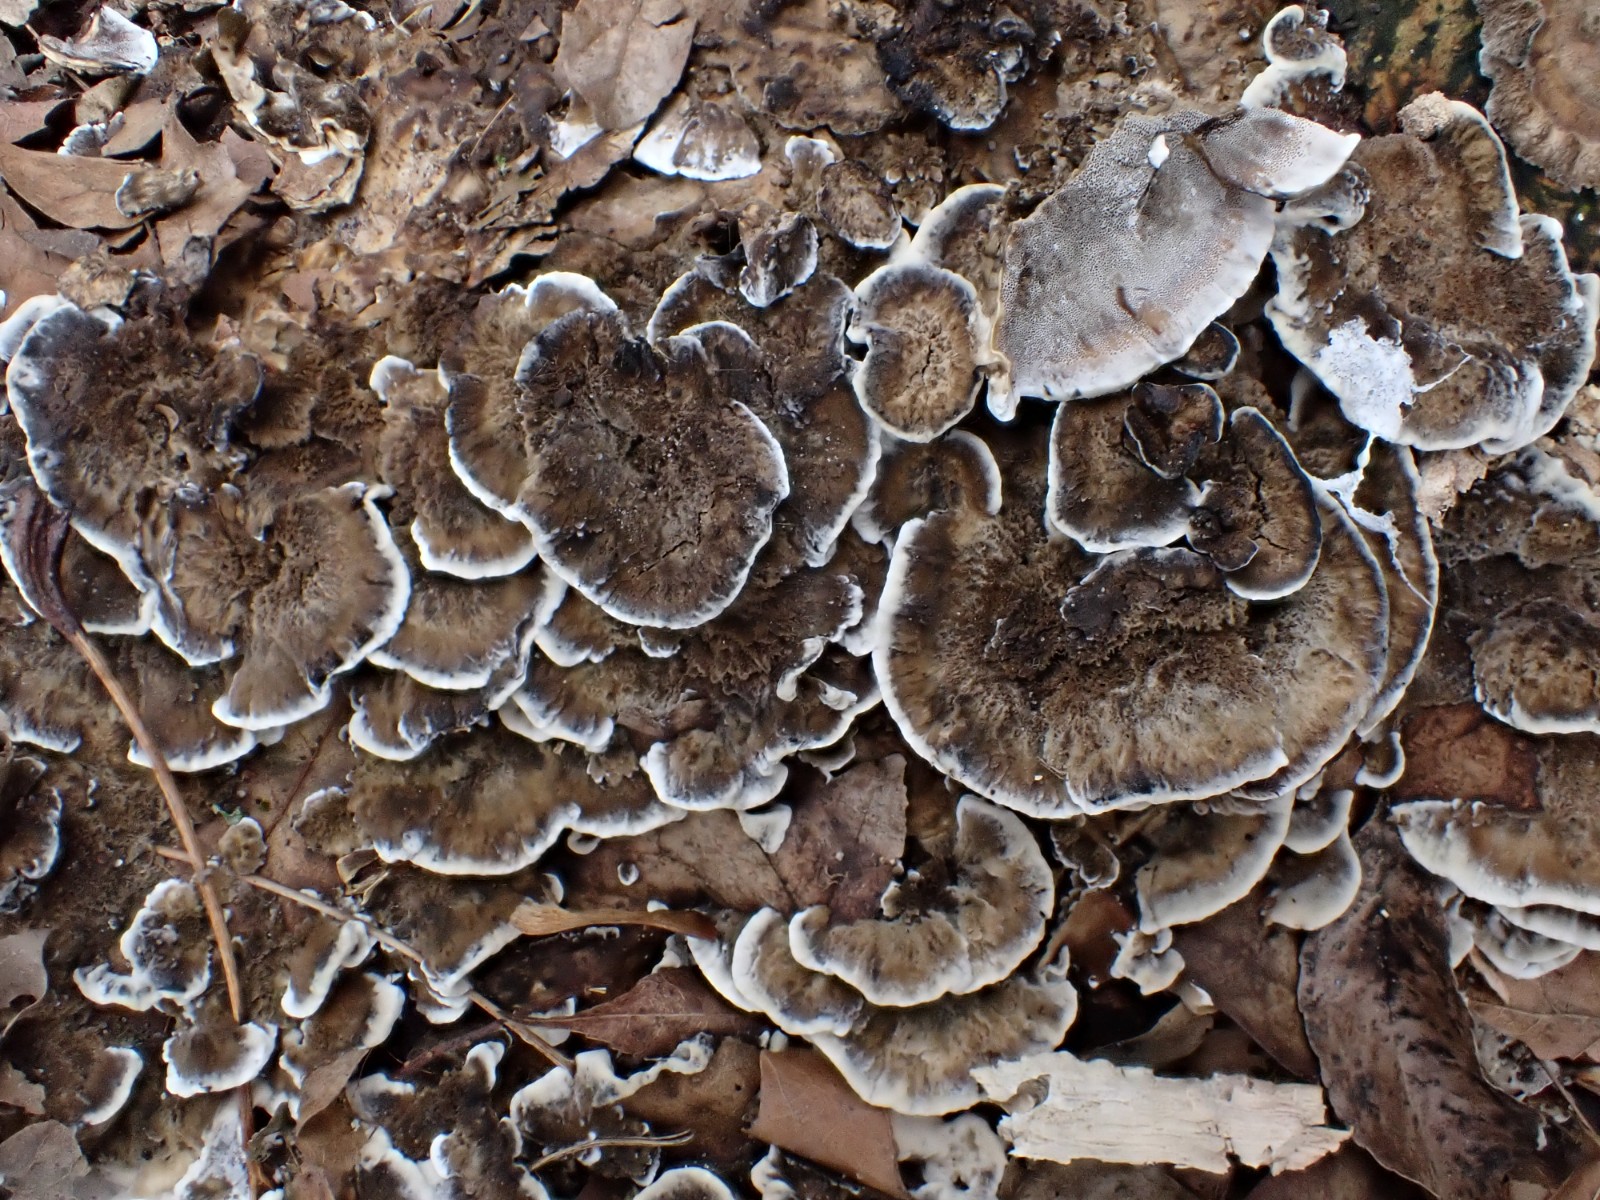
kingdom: Fungi
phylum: Basidiomycota
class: Agaricomycetes
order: Polyporales
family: Phanerochaetaceae
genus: Bjerkandera
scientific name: Bjerkandera adusta
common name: sveden sodporesvamp
